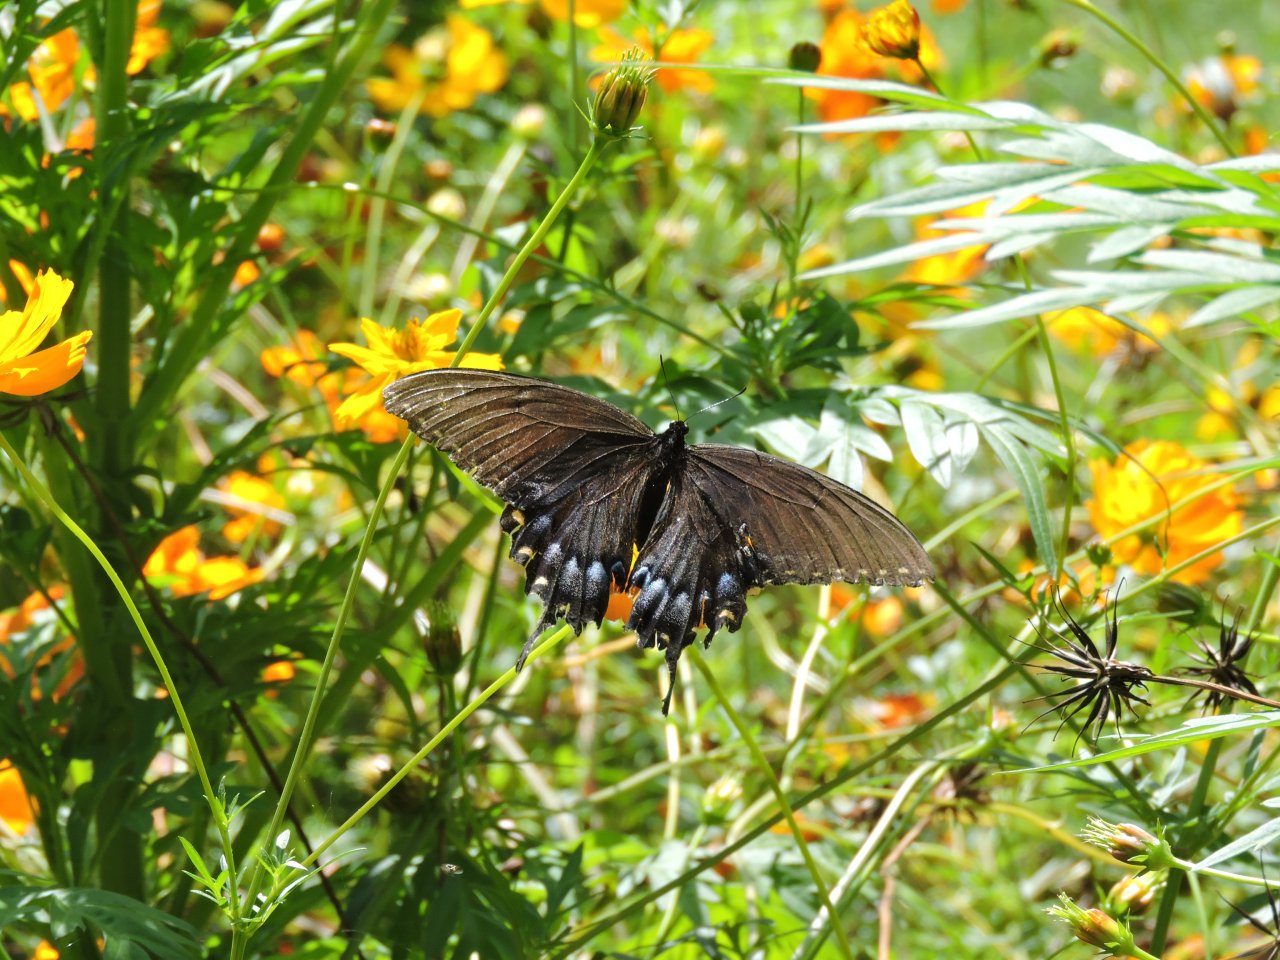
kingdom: Animalia
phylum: Arthropoda
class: Insecta
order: Lepidoptera
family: Papilionidae
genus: Pterourus
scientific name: Pterourus glaucus
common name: Eastern Tiger Swallowtail
